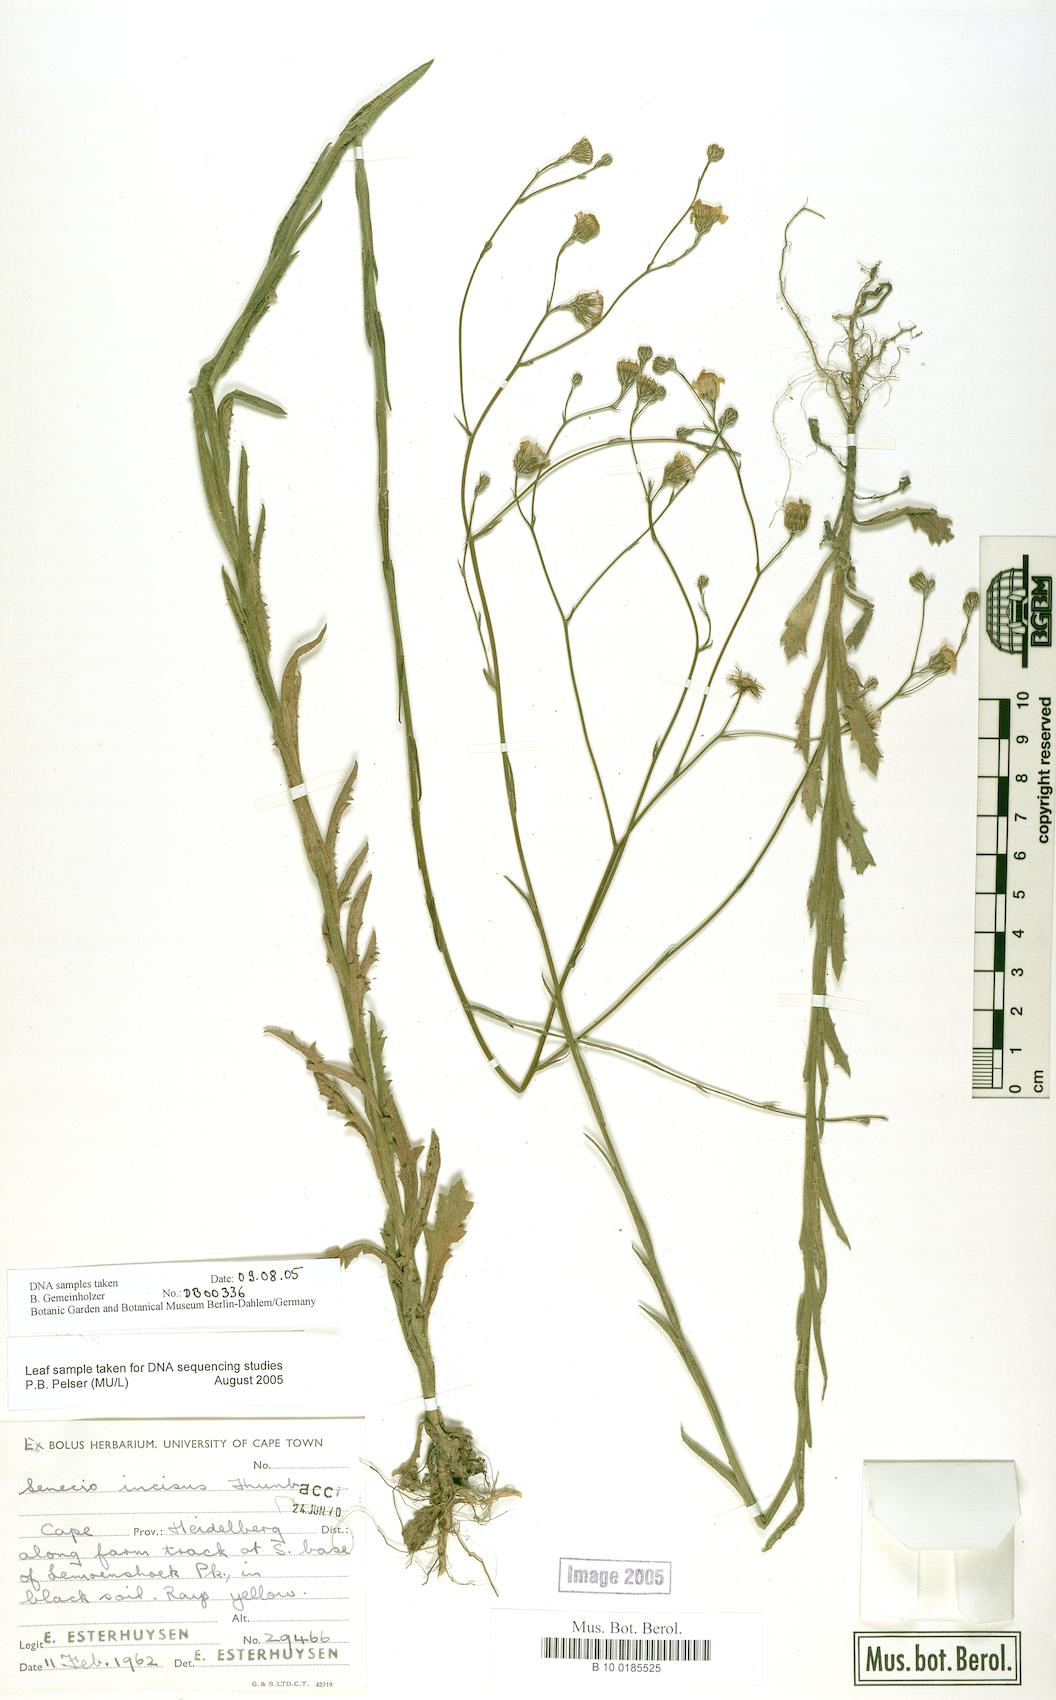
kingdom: Plantae
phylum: Tracheophyta
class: Magnoliopsida
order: Asterales
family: Asteraceae
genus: Senecio
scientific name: Senecio phalachrolaenus
